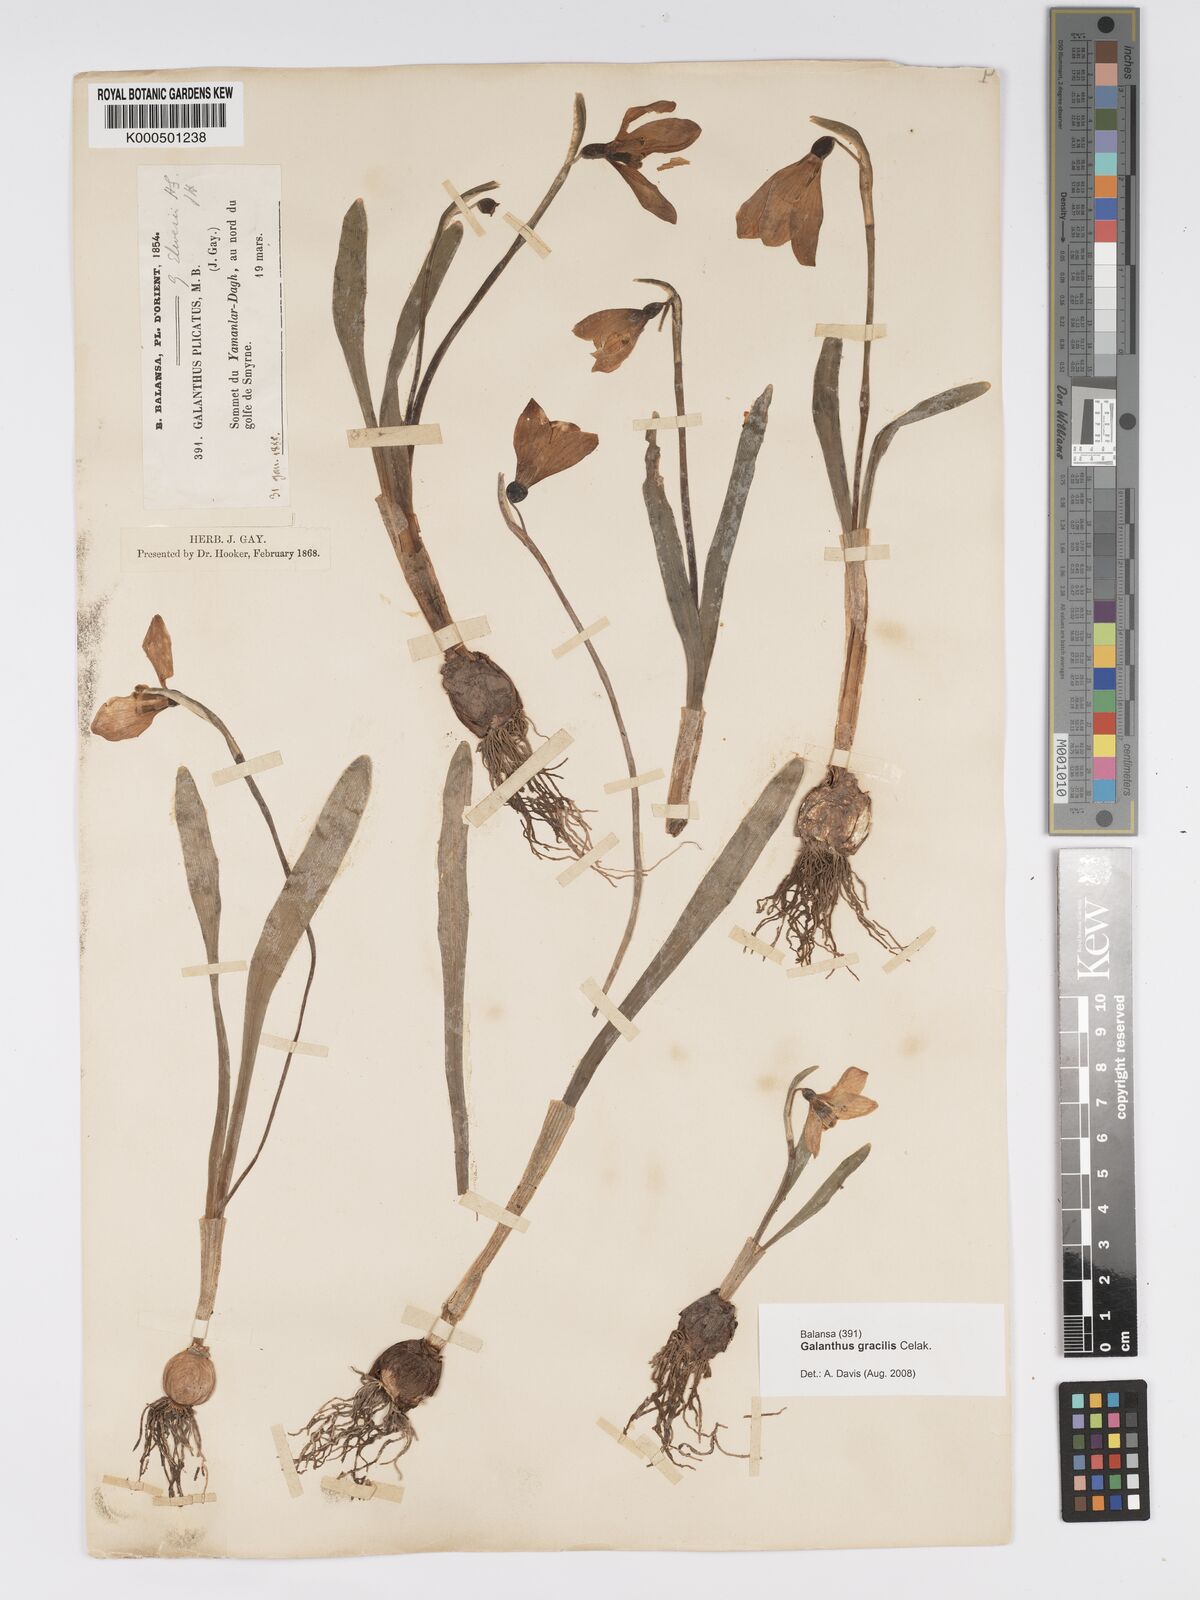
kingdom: Plantae
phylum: Tracheophyta
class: Liliopsida
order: Asparagales
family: Amaryllidaceae
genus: Galanthus
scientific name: Galanthus gracilis
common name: Snowdrop
